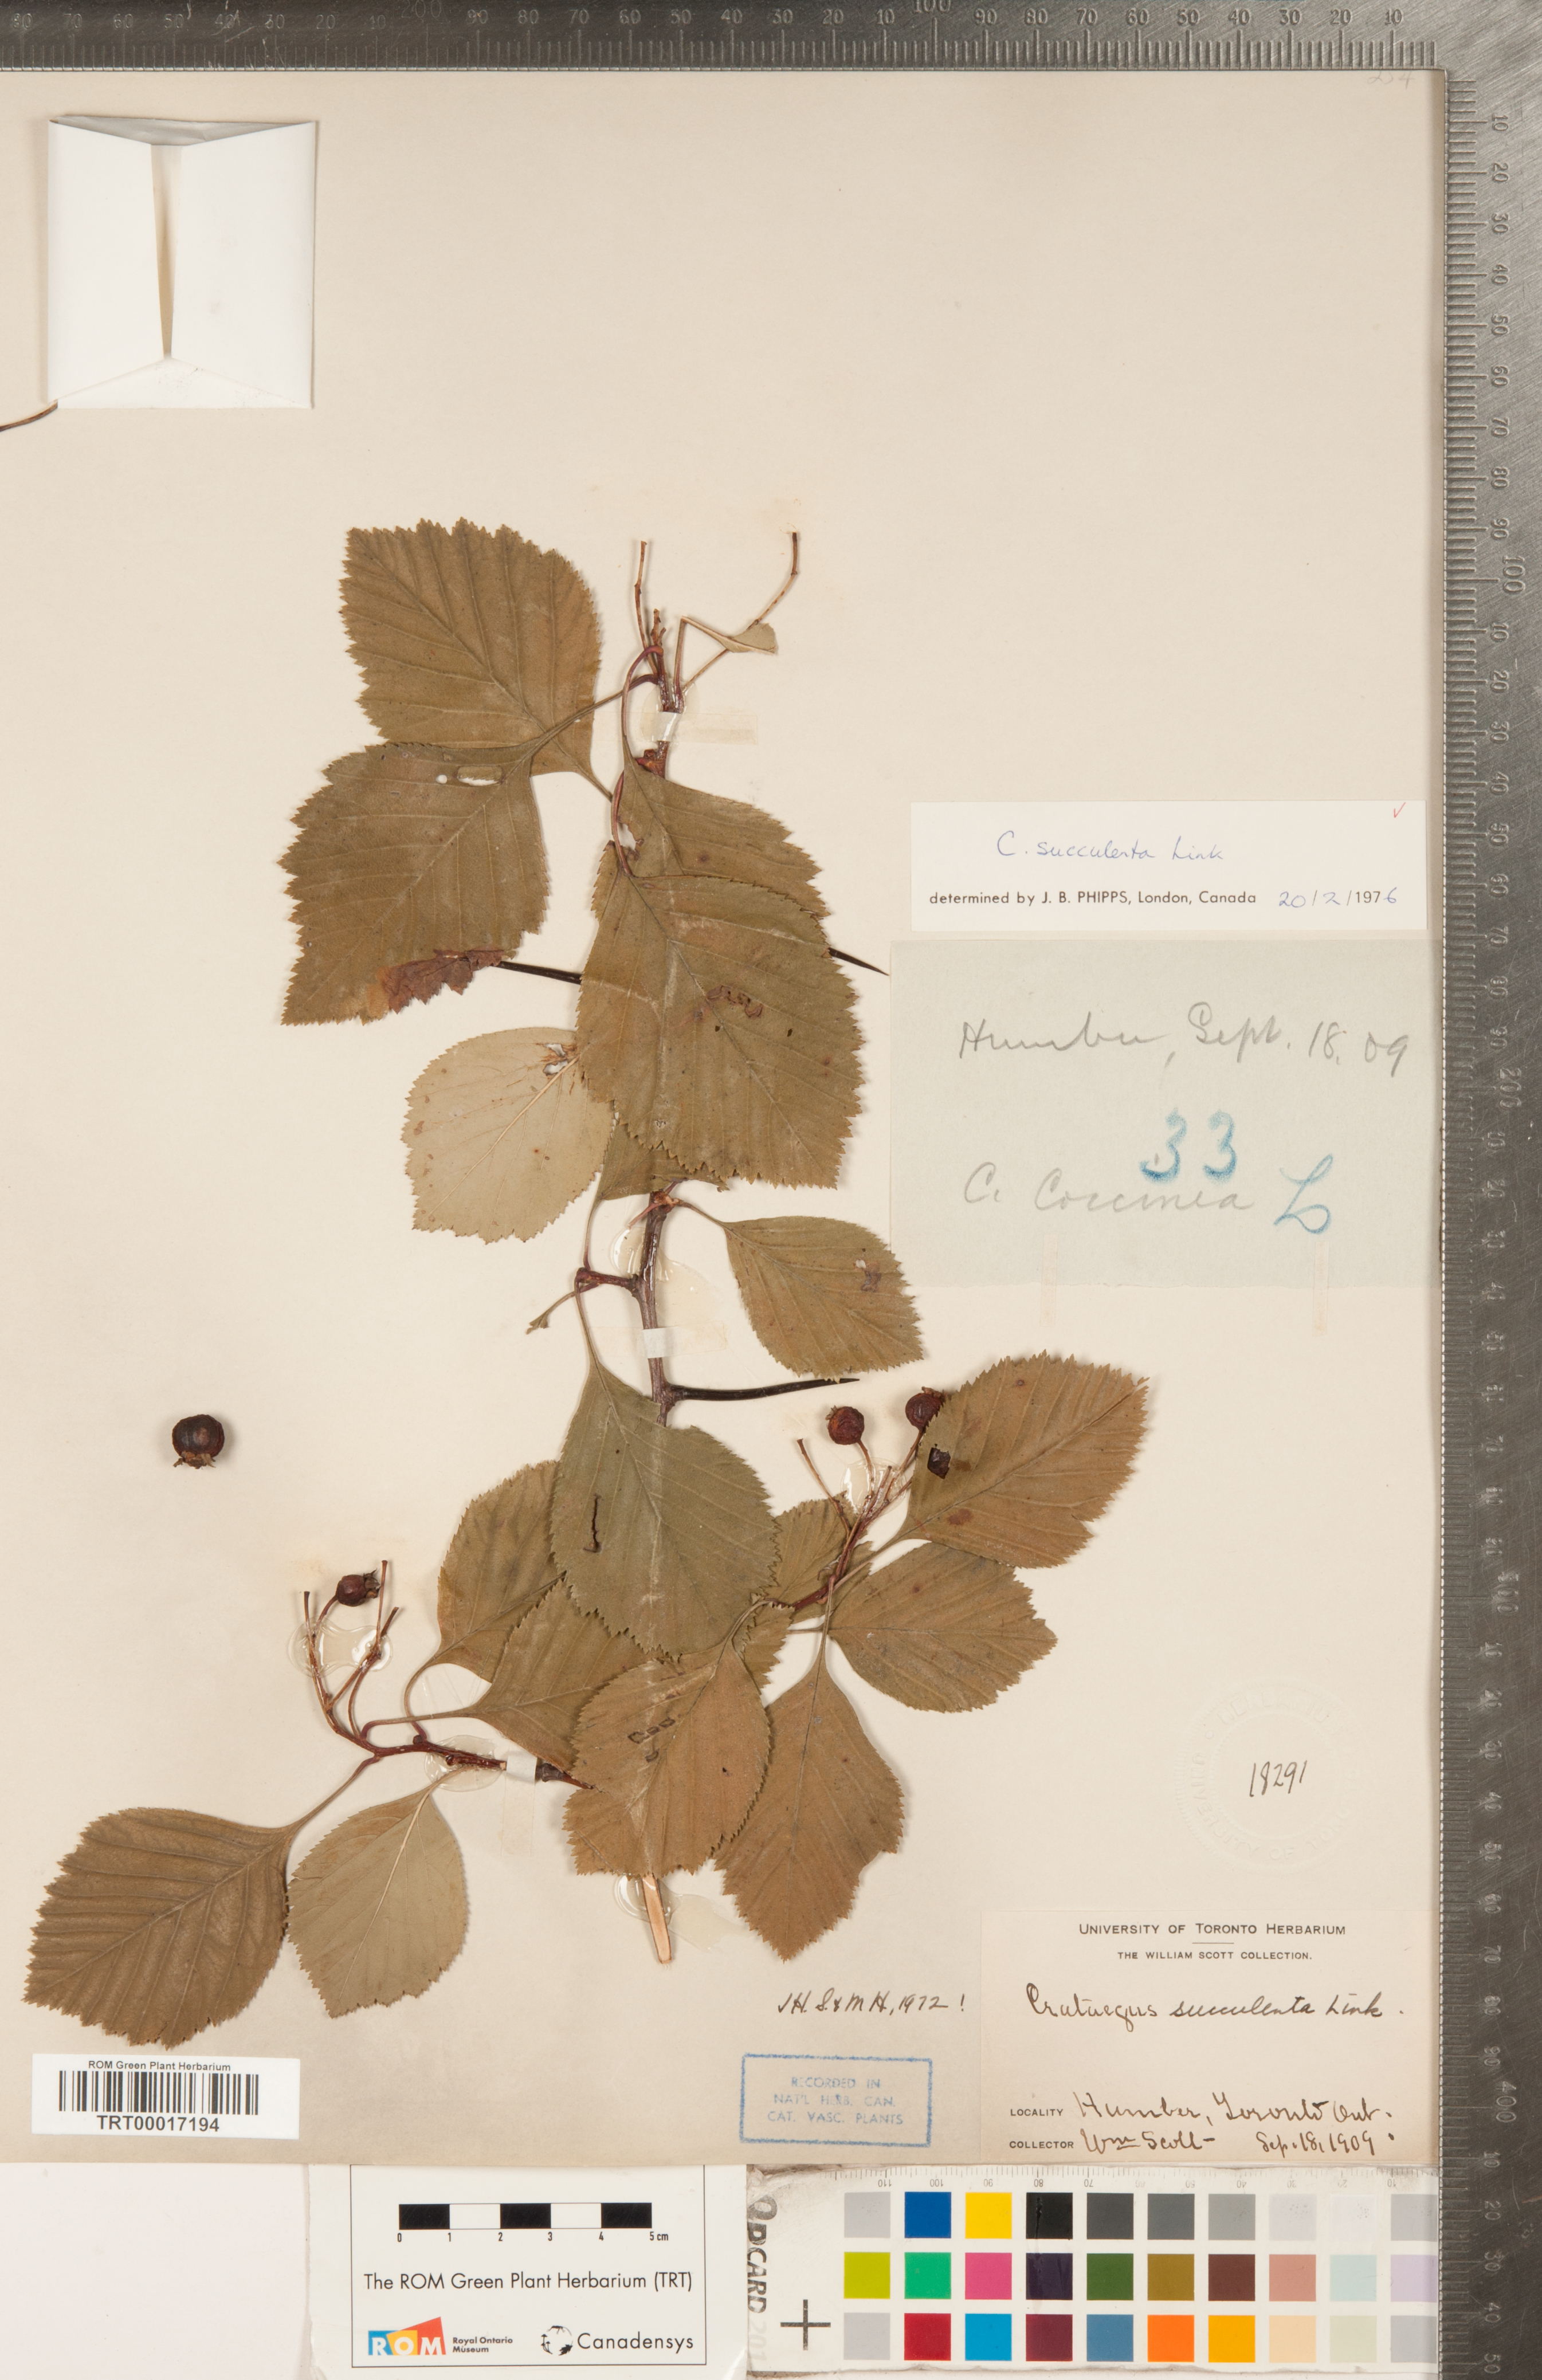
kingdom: Plantae
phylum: Tracheophyta
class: Magnoliopsida
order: Rosales
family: Rosaceae
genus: Crataegus
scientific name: Crataegus succulenta
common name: Fleshy hawthorn
